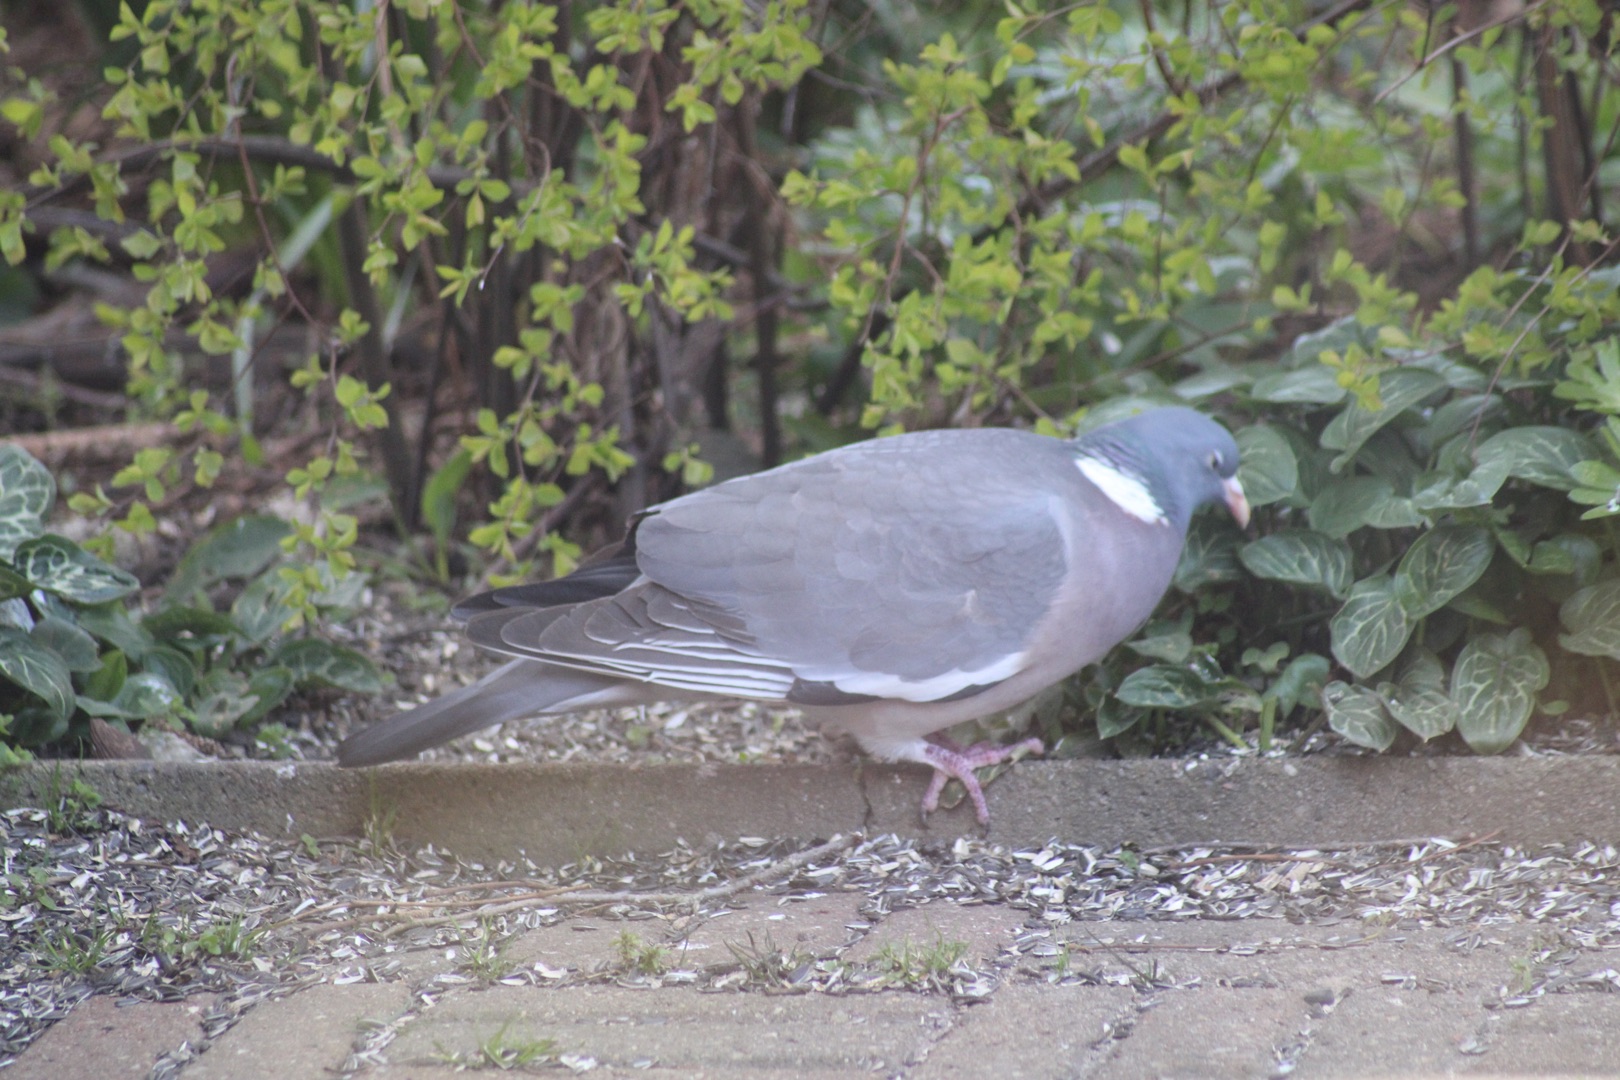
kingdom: Animalia
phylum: Chordata
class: Aves
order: Columbiformes
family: Columbidae
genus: Columba
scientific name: Columba palumbus
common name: Ringdue
